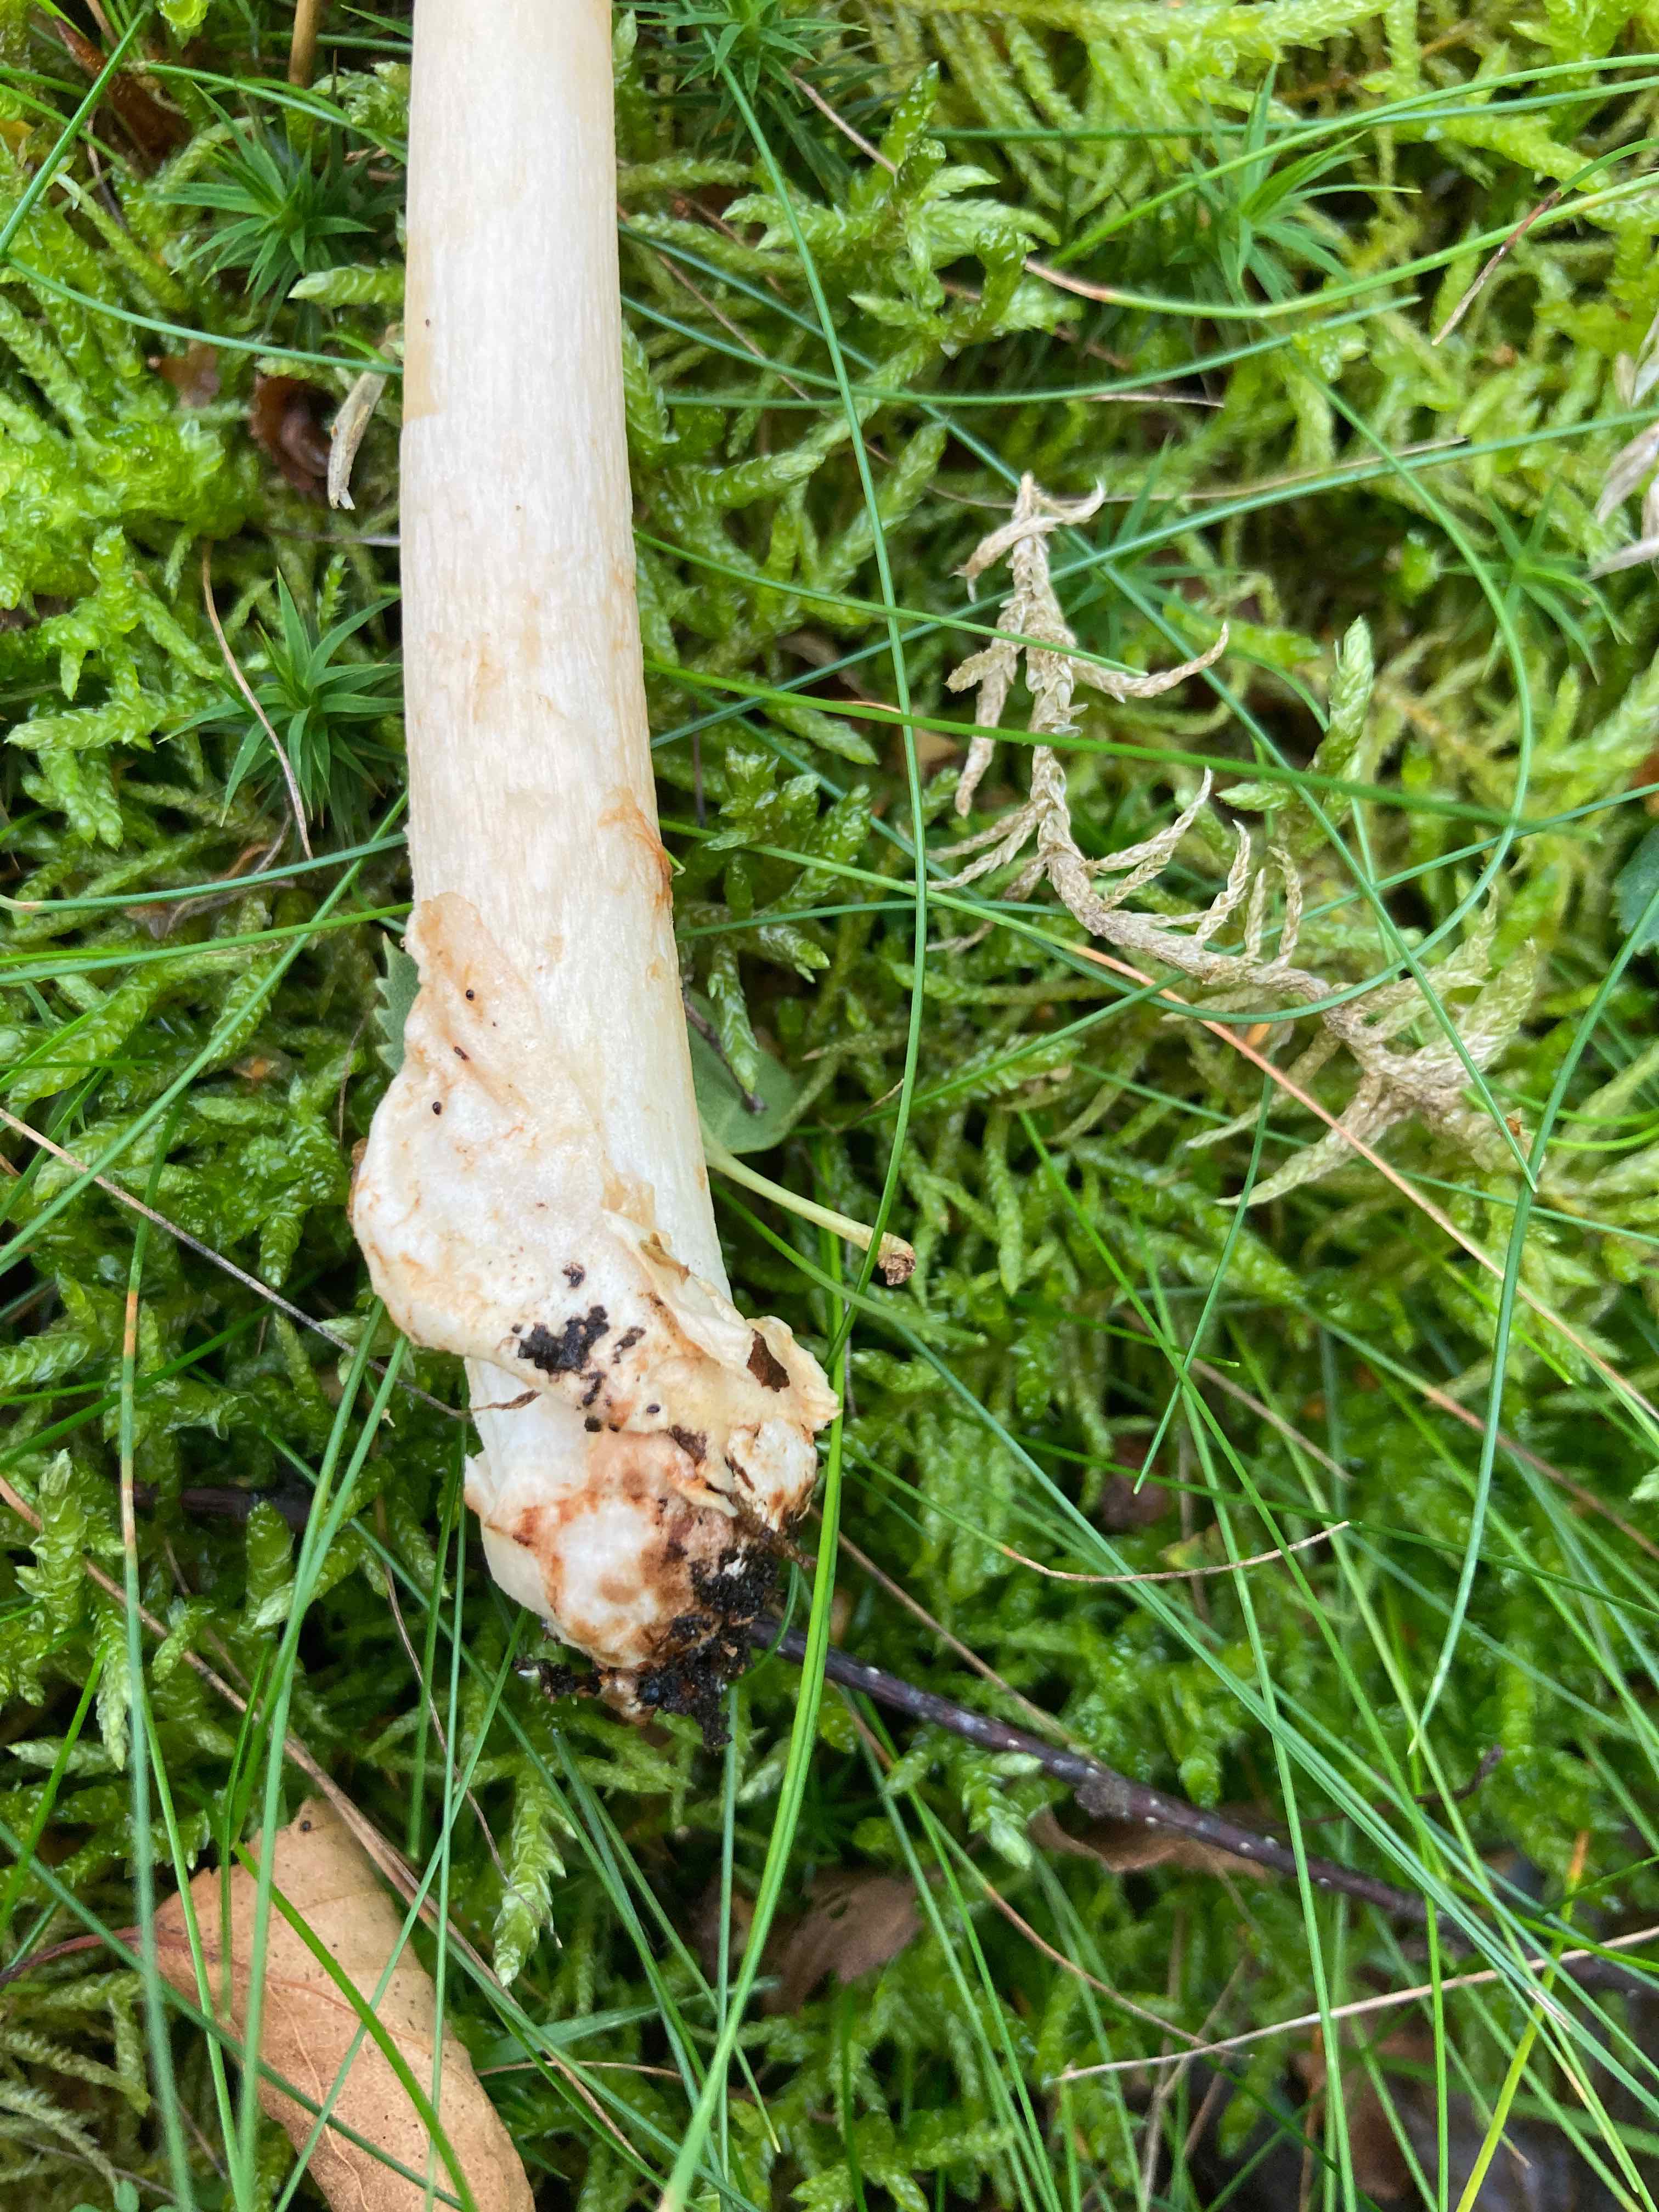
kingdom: Fungi
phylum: Basidiomycota
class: Agaricomycetes
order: Agaricales
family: Amanitaceae
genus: Amanita
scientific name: Amanita fulva
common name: brun kam-fluesvamp
